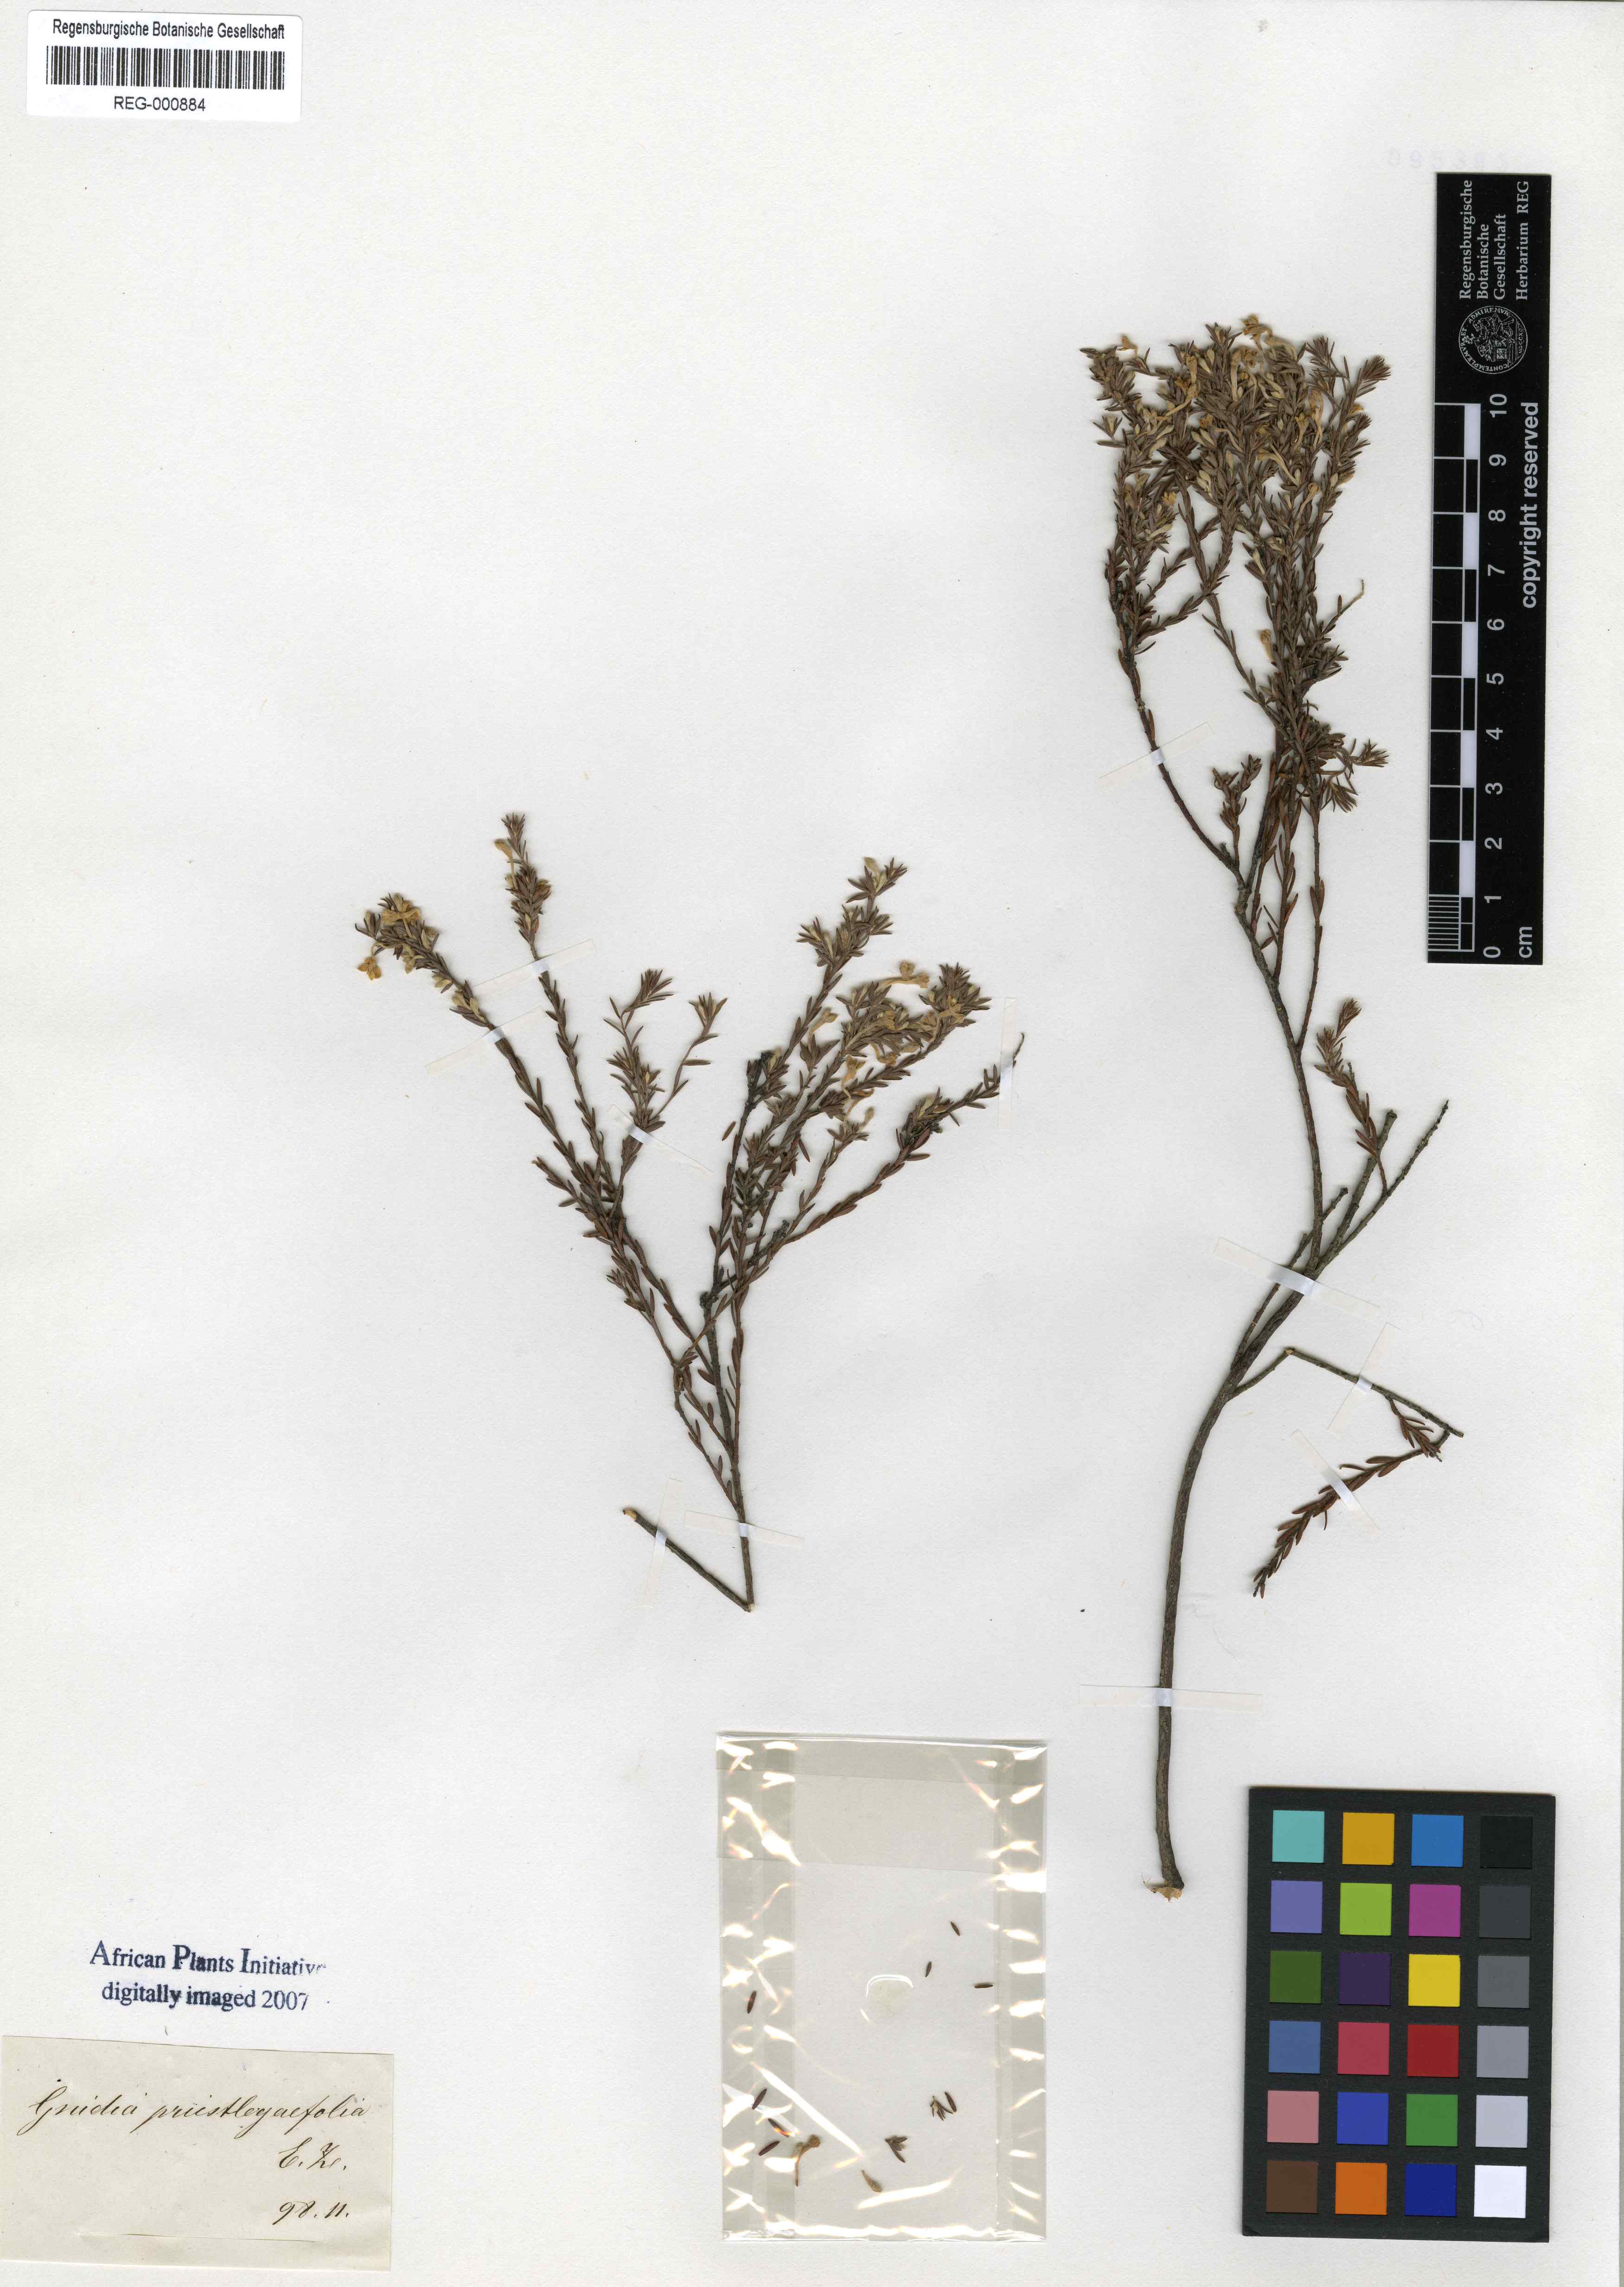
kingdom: Plantae
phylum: Tracheophyta
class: Magnoliopsida
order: Malvales
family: Thymelaeaceae
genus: Gnidia
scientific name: Gnidia scabra
